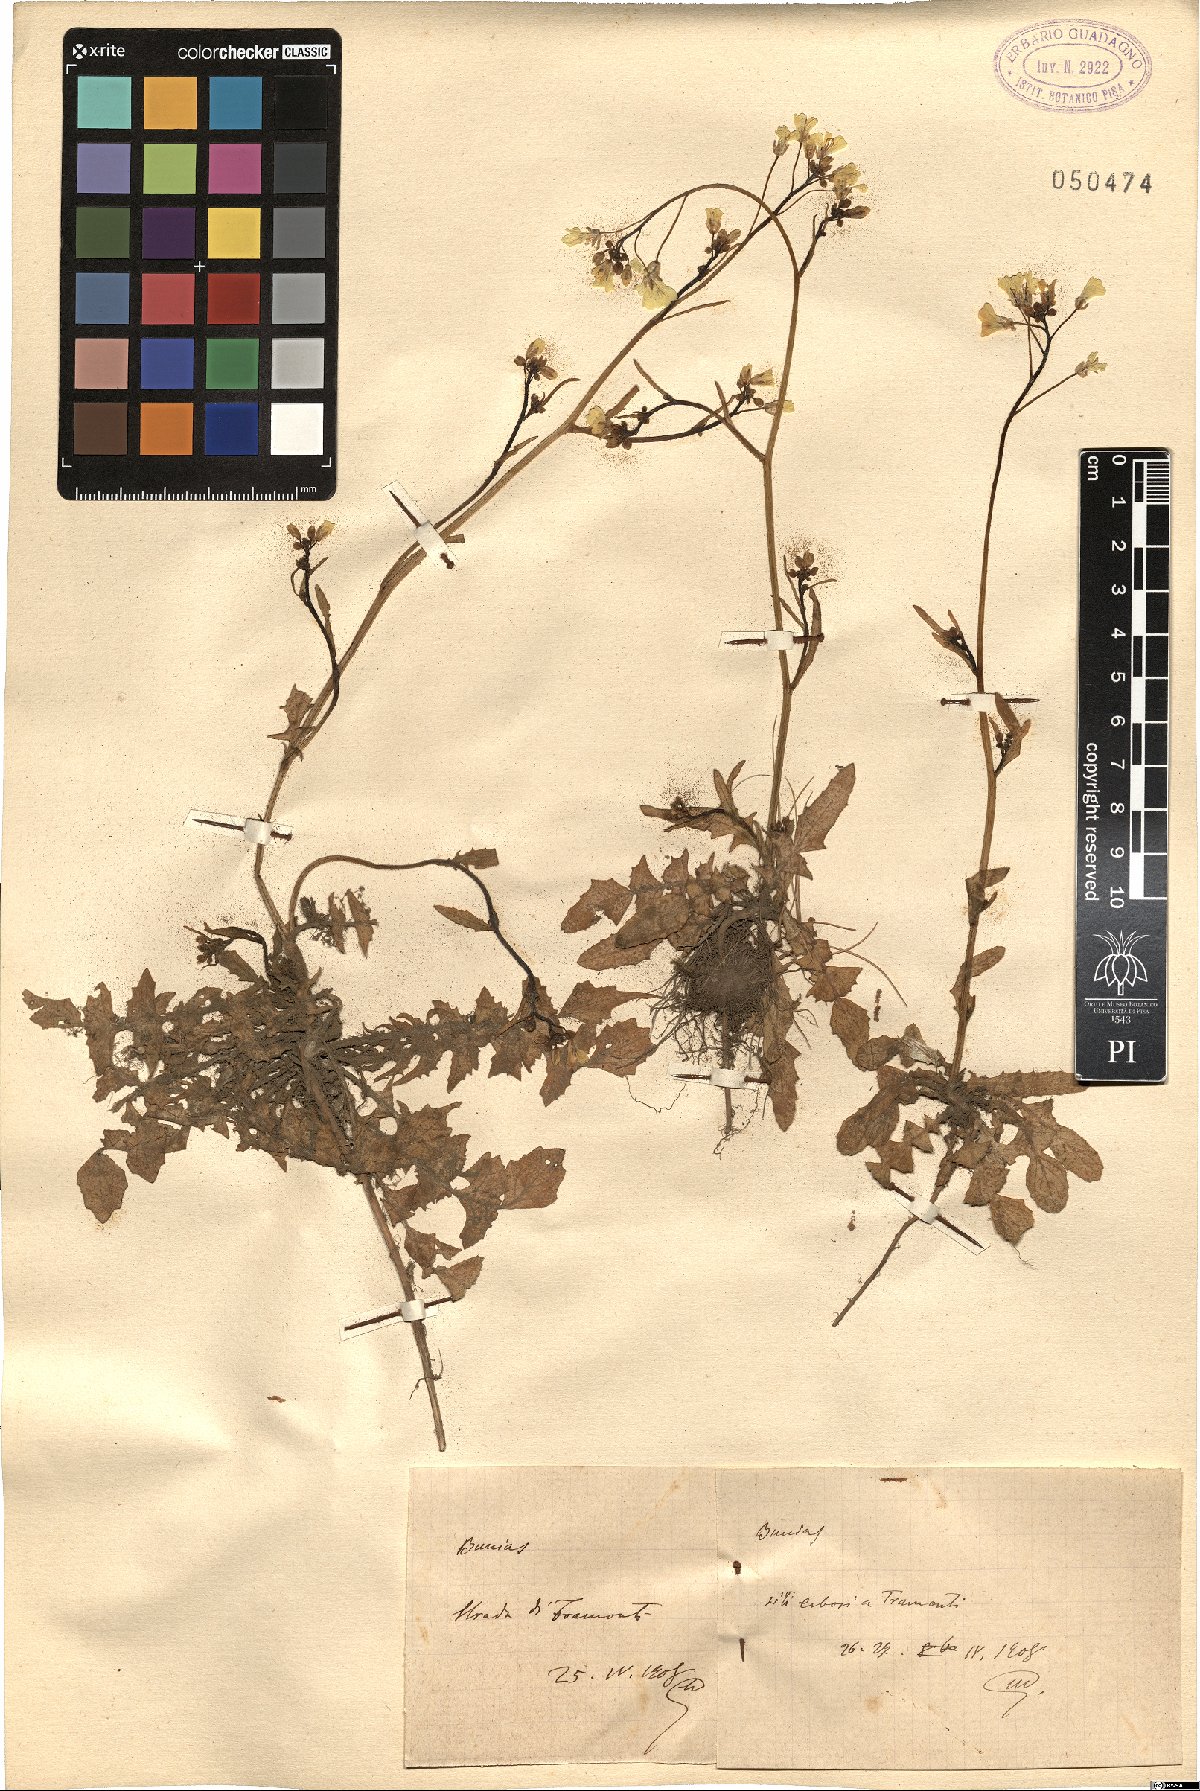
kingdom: Plantae
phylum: Tracheophyta
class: Magnoliopsida
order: Brassicales
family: Brassicaceae
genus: Bunias
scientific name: Bunias
